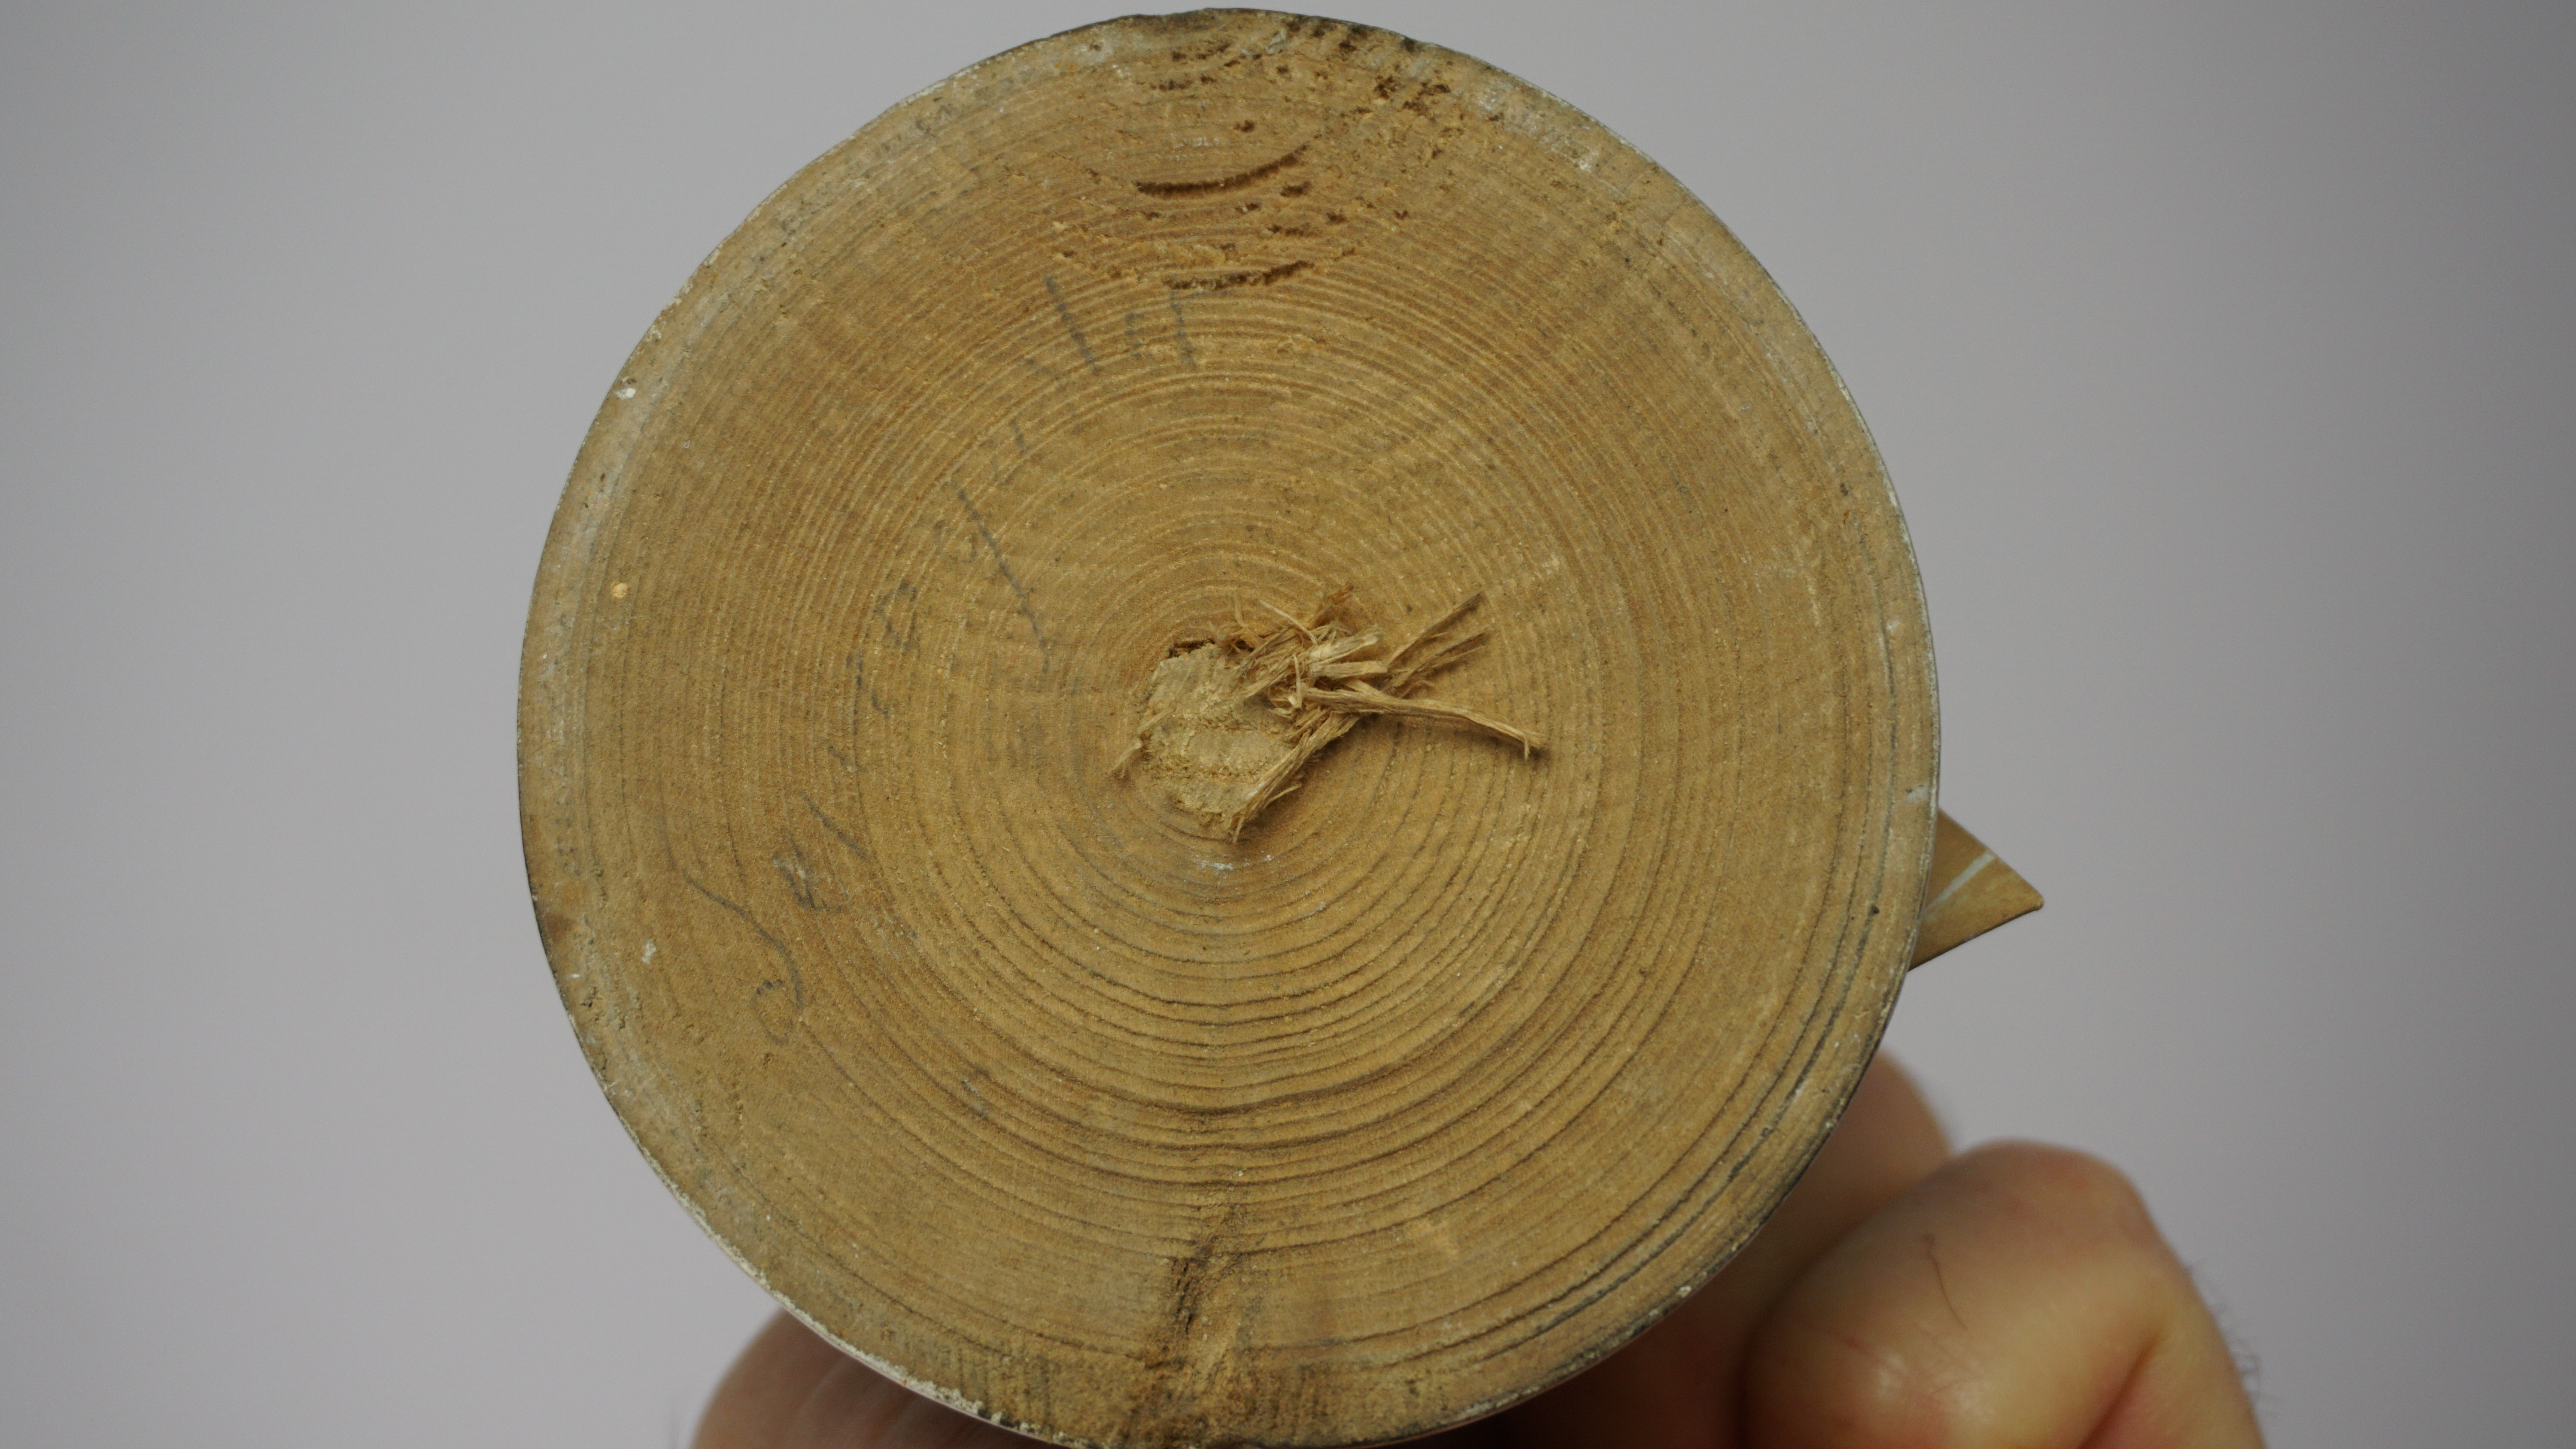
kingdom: Animalia
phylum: Chordata
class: Aves
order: Piciformes
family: Picidae
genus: Dryocopus
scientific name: Dryocopus javensis
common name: White-bellied woodpecker
